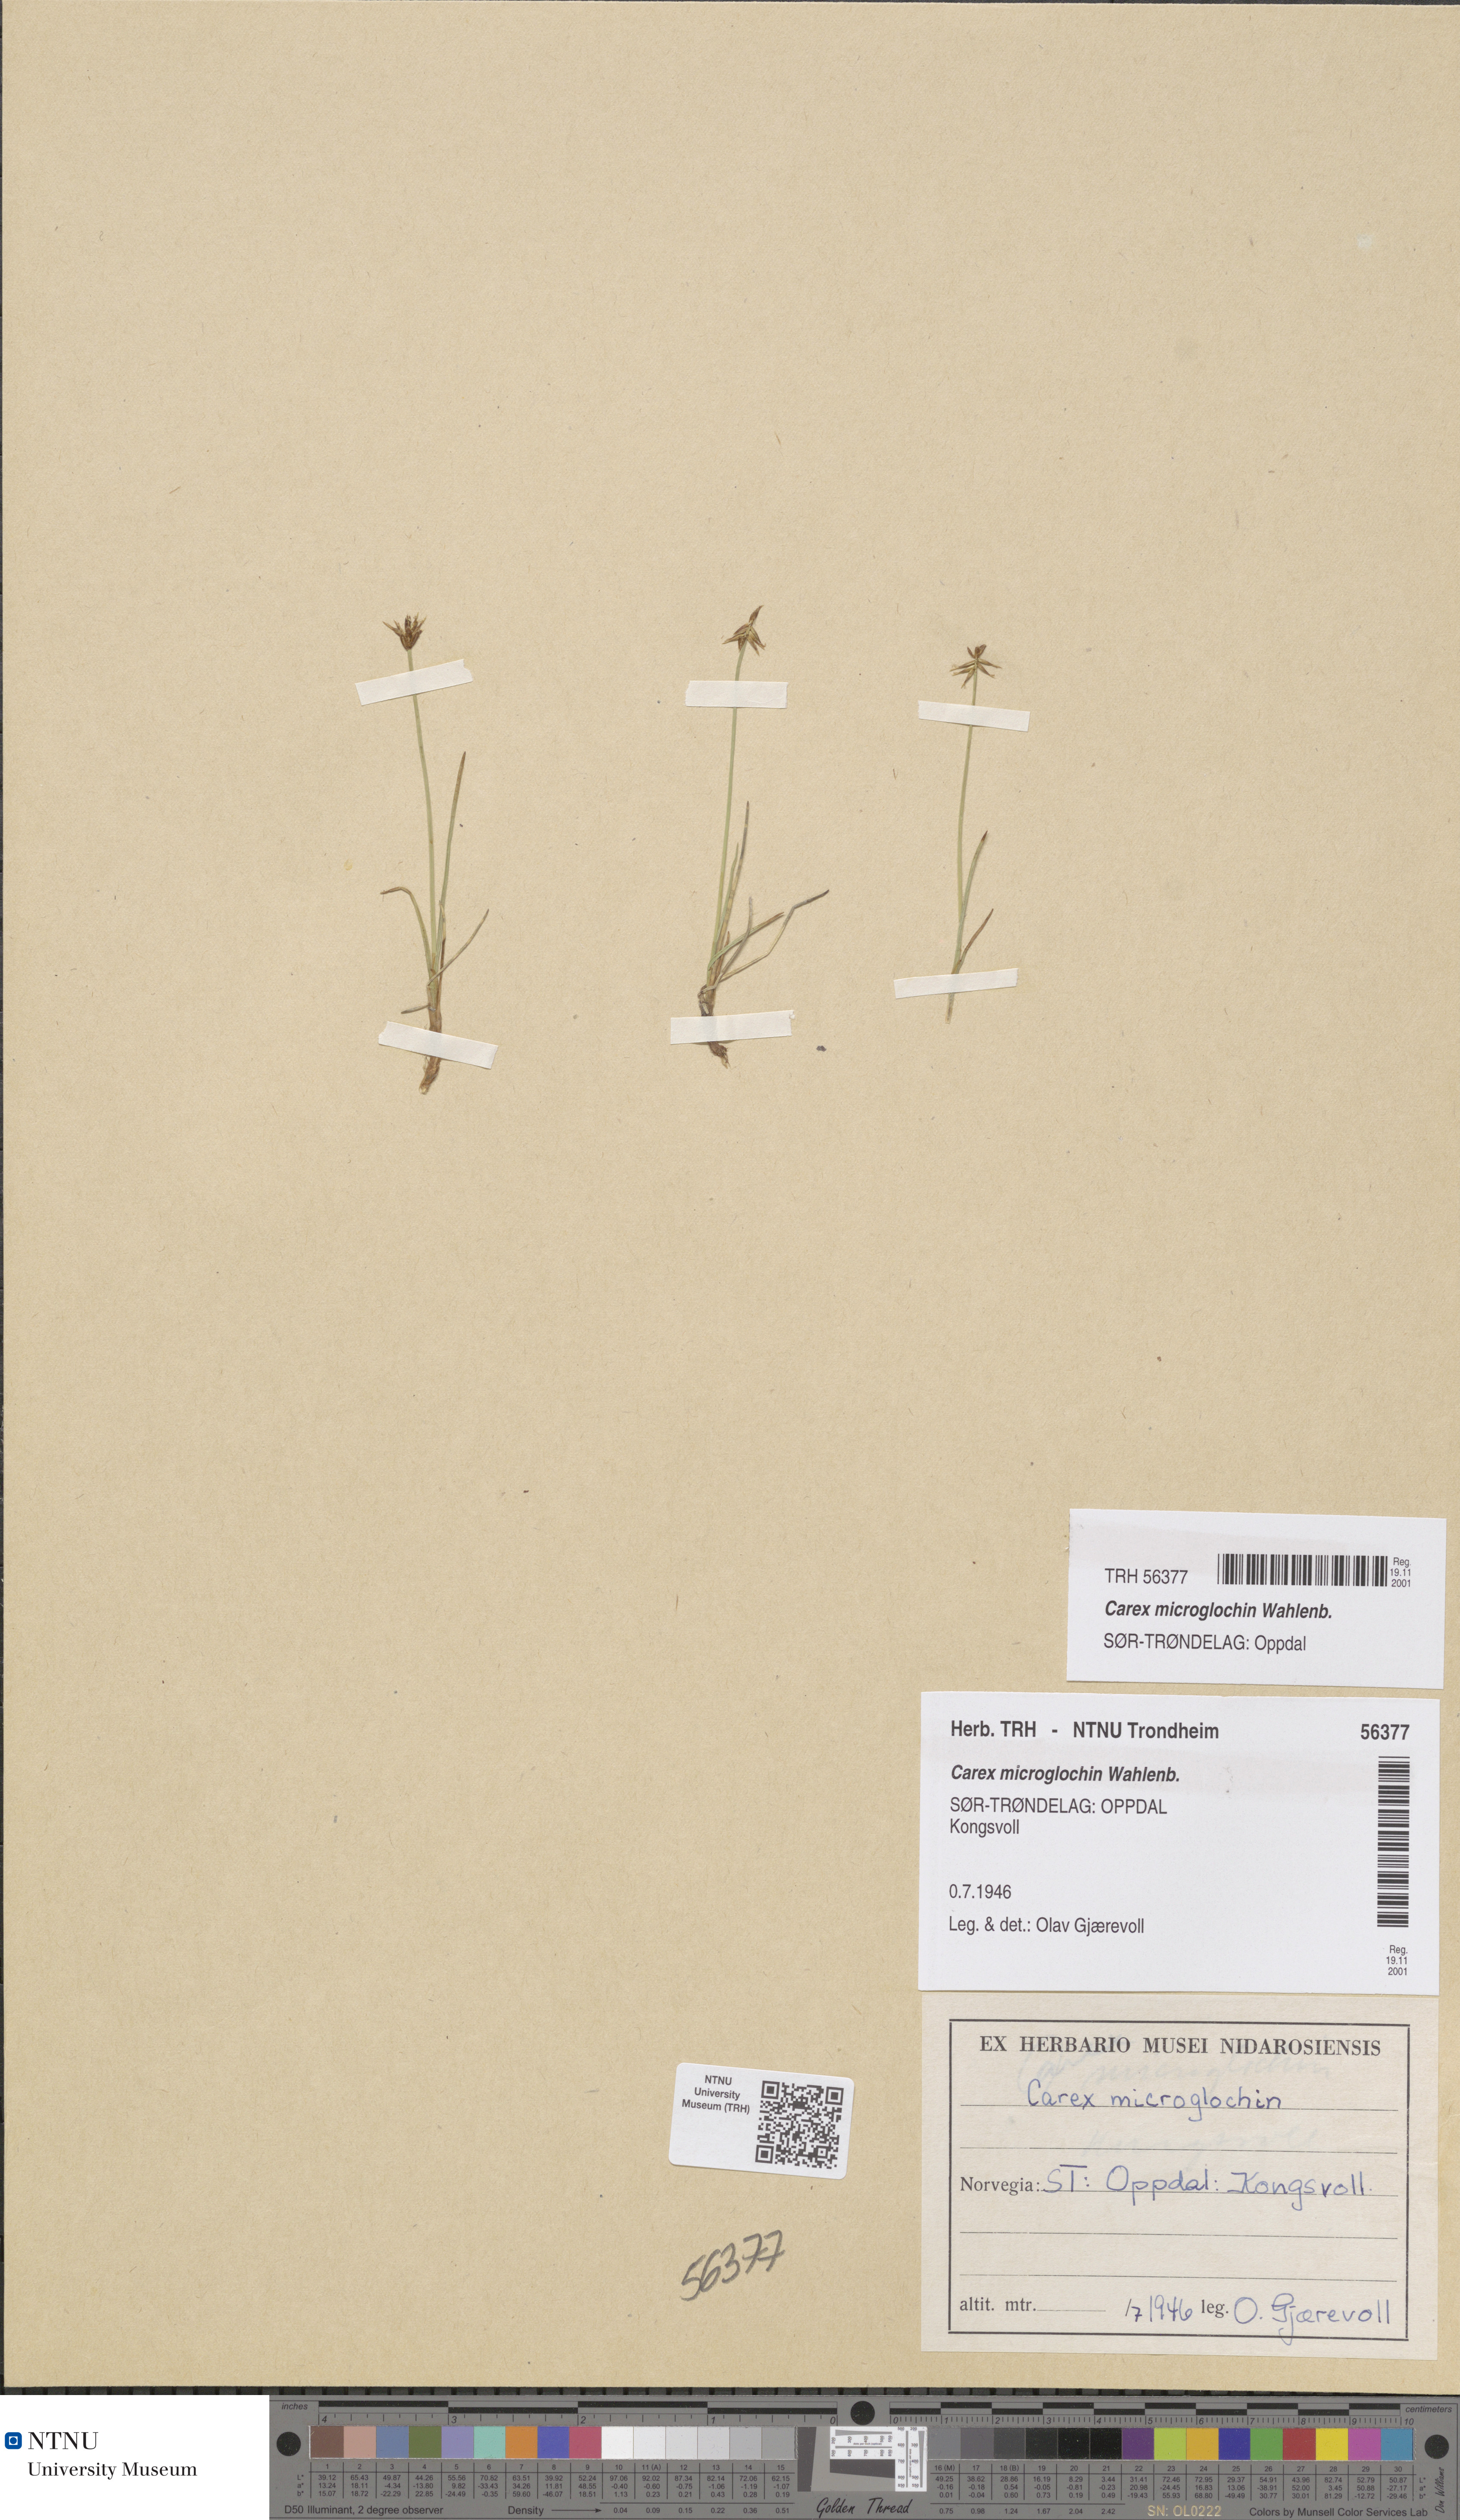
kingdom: Plantae
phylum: Tracheophyta
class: Liliopsida
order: Poales
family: Cyperaceae
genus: Carex
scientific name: Carex microglochin
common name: Bristle sedge
